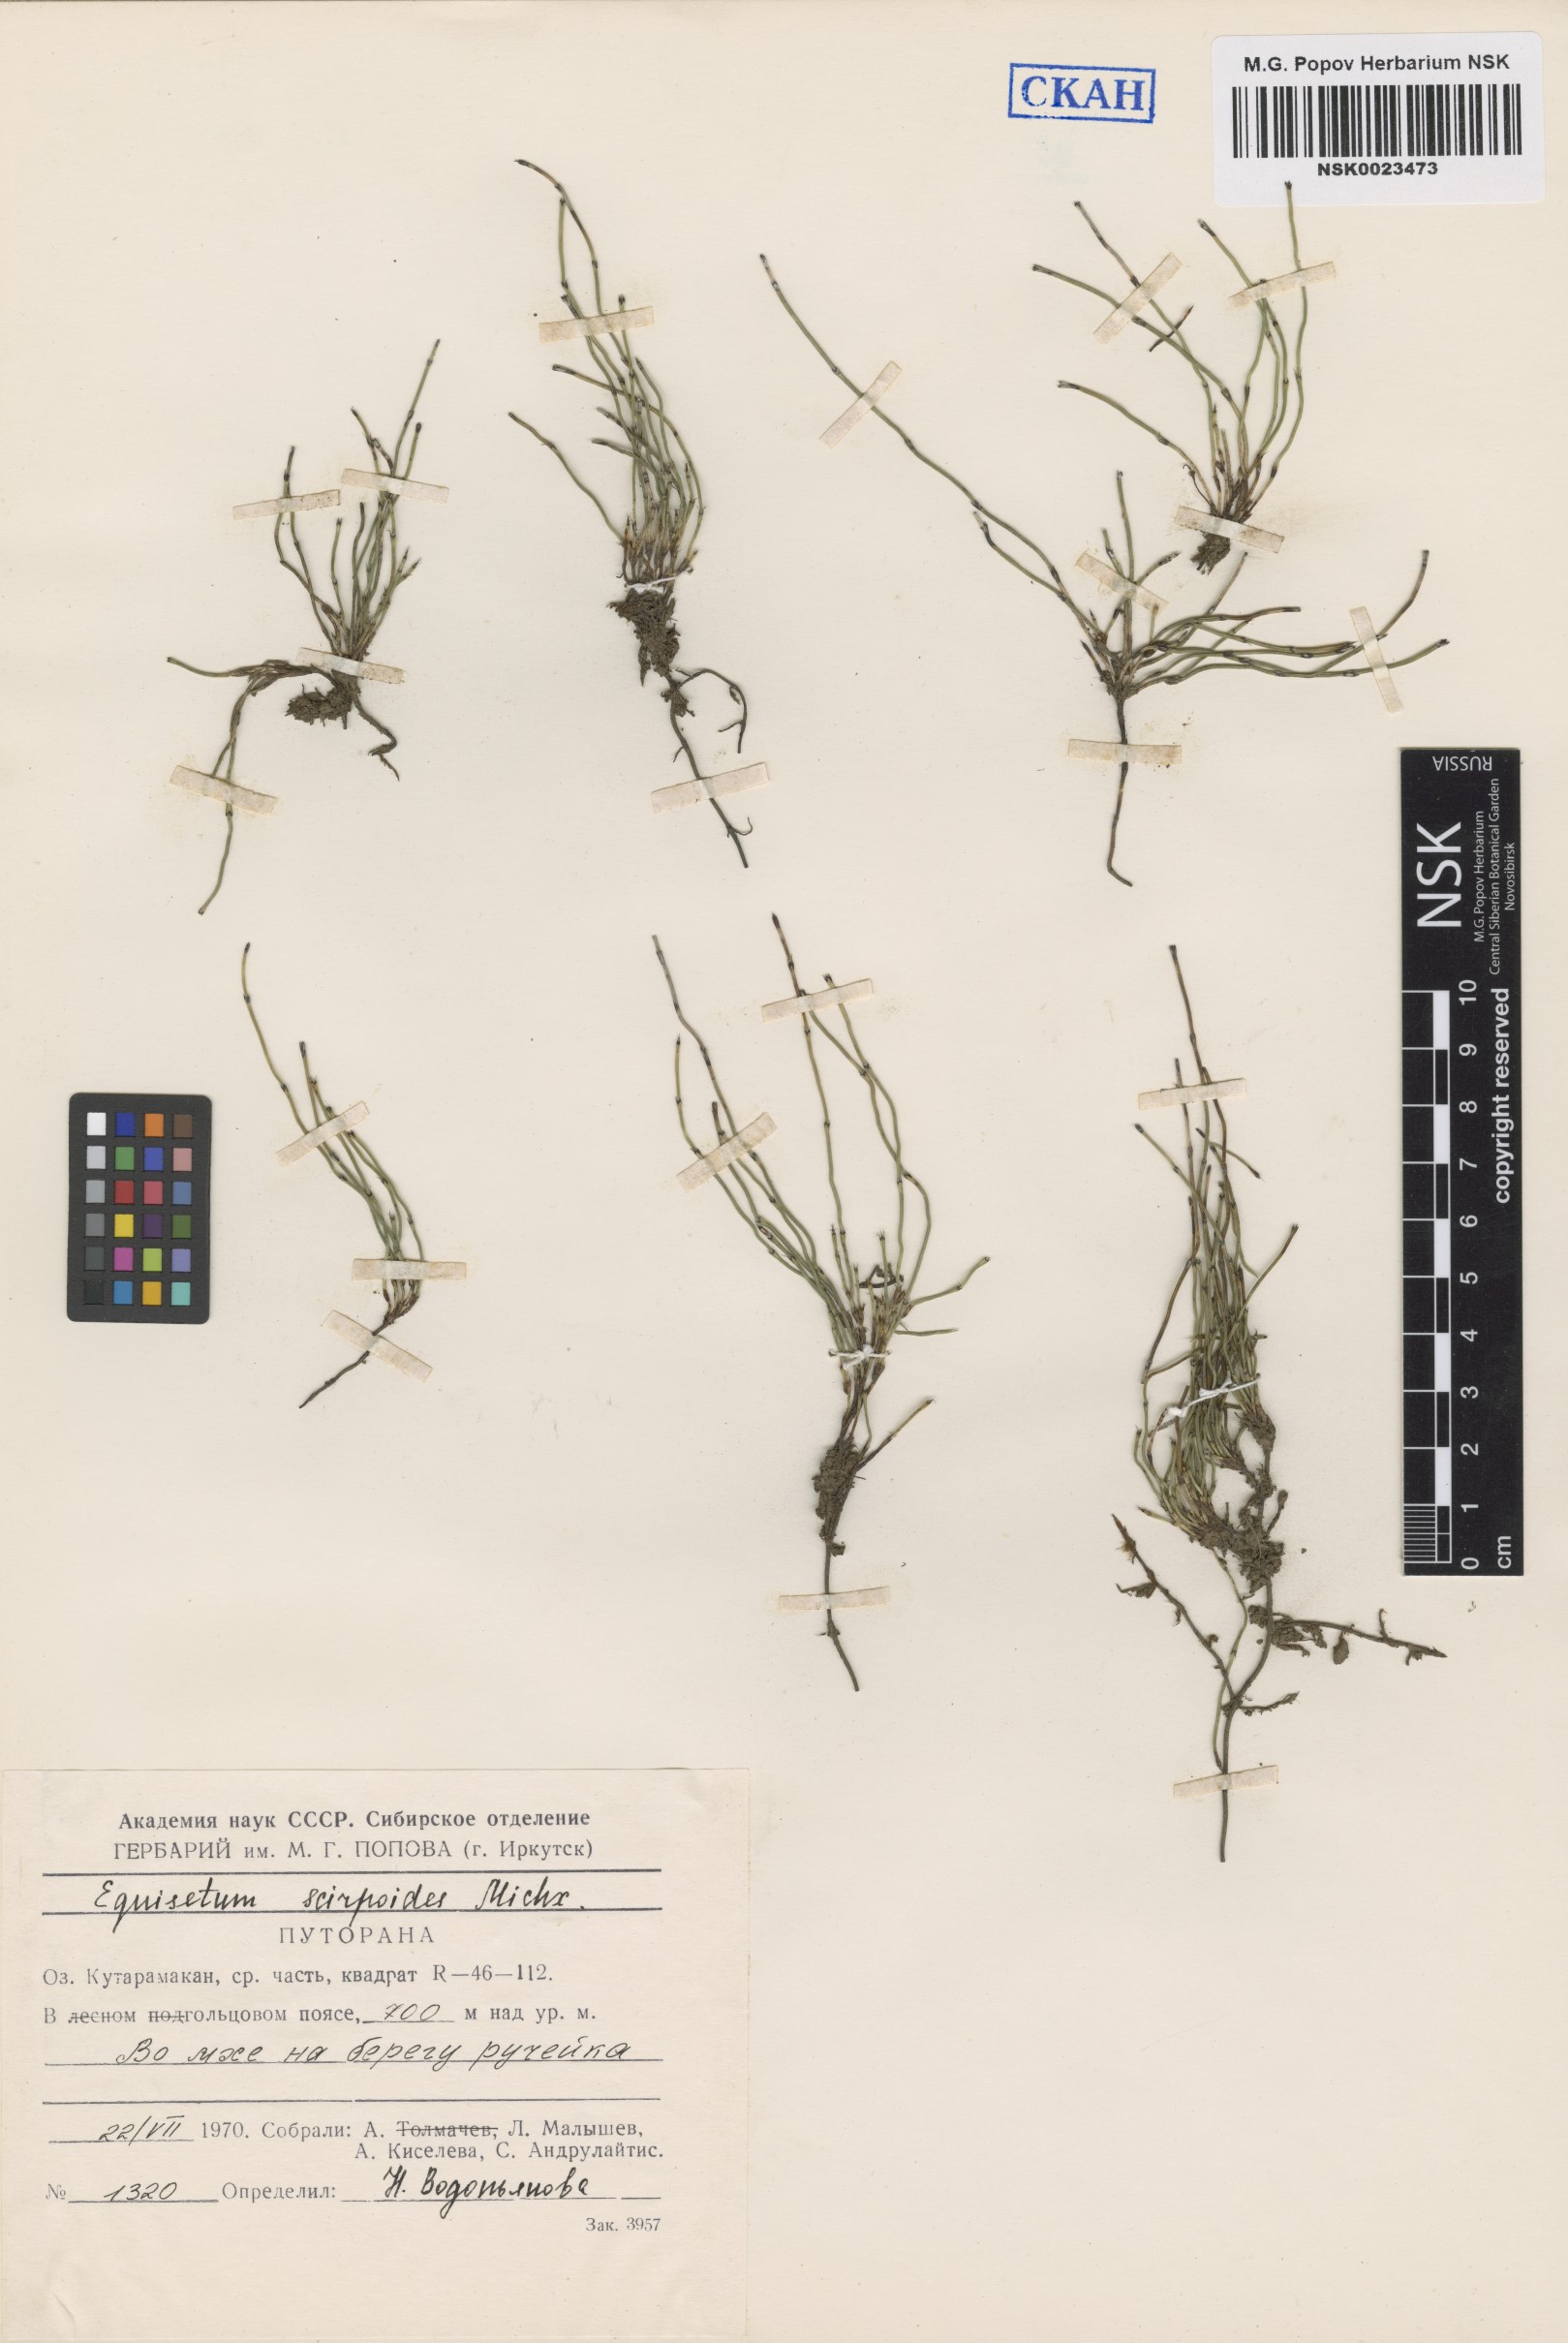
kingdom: Plantae
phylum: Tracheophyta
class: Polypodiopsida
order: Equisetales
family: Equisetaceae
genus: Equisetum
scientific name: Equisetum scirpoides
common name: Delicate horsetail
